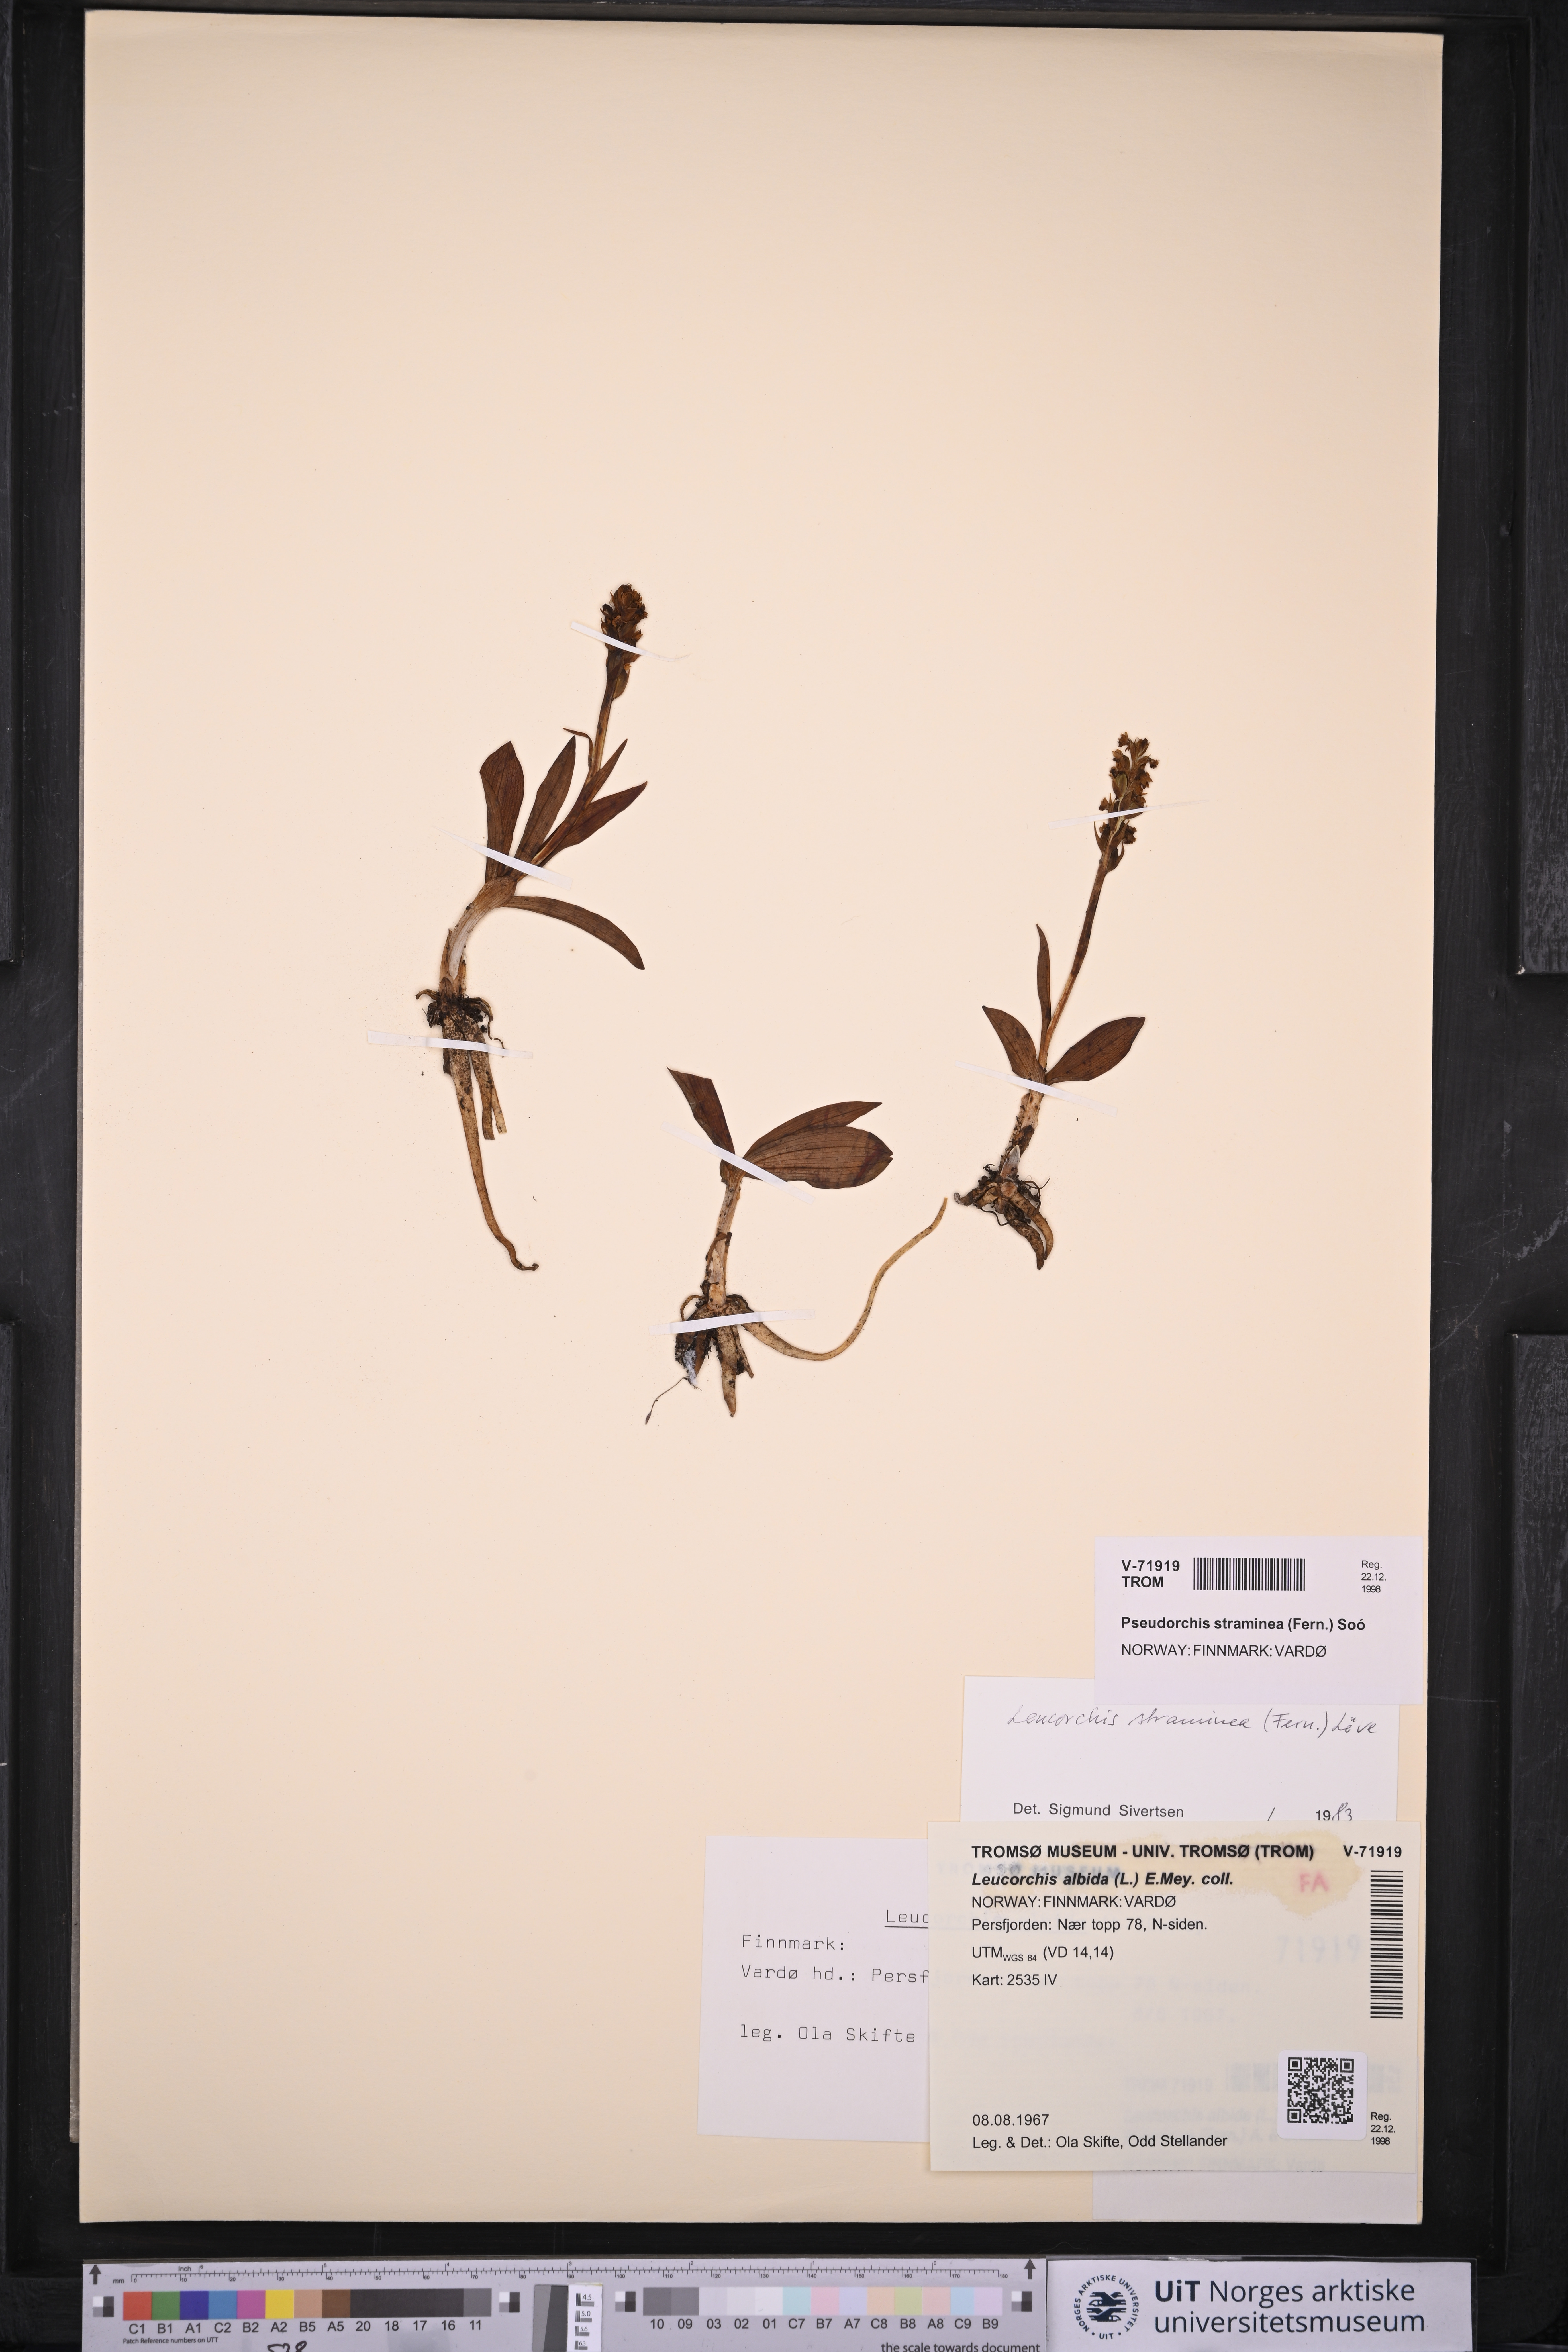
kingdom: Plantae
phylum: Tracheophyta
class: Liliopsida
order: Asparagales
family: Orchidaceae
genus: Pseudorchis
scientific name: Pseudorchis straminea
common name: Vanilla-scented bog orchid
